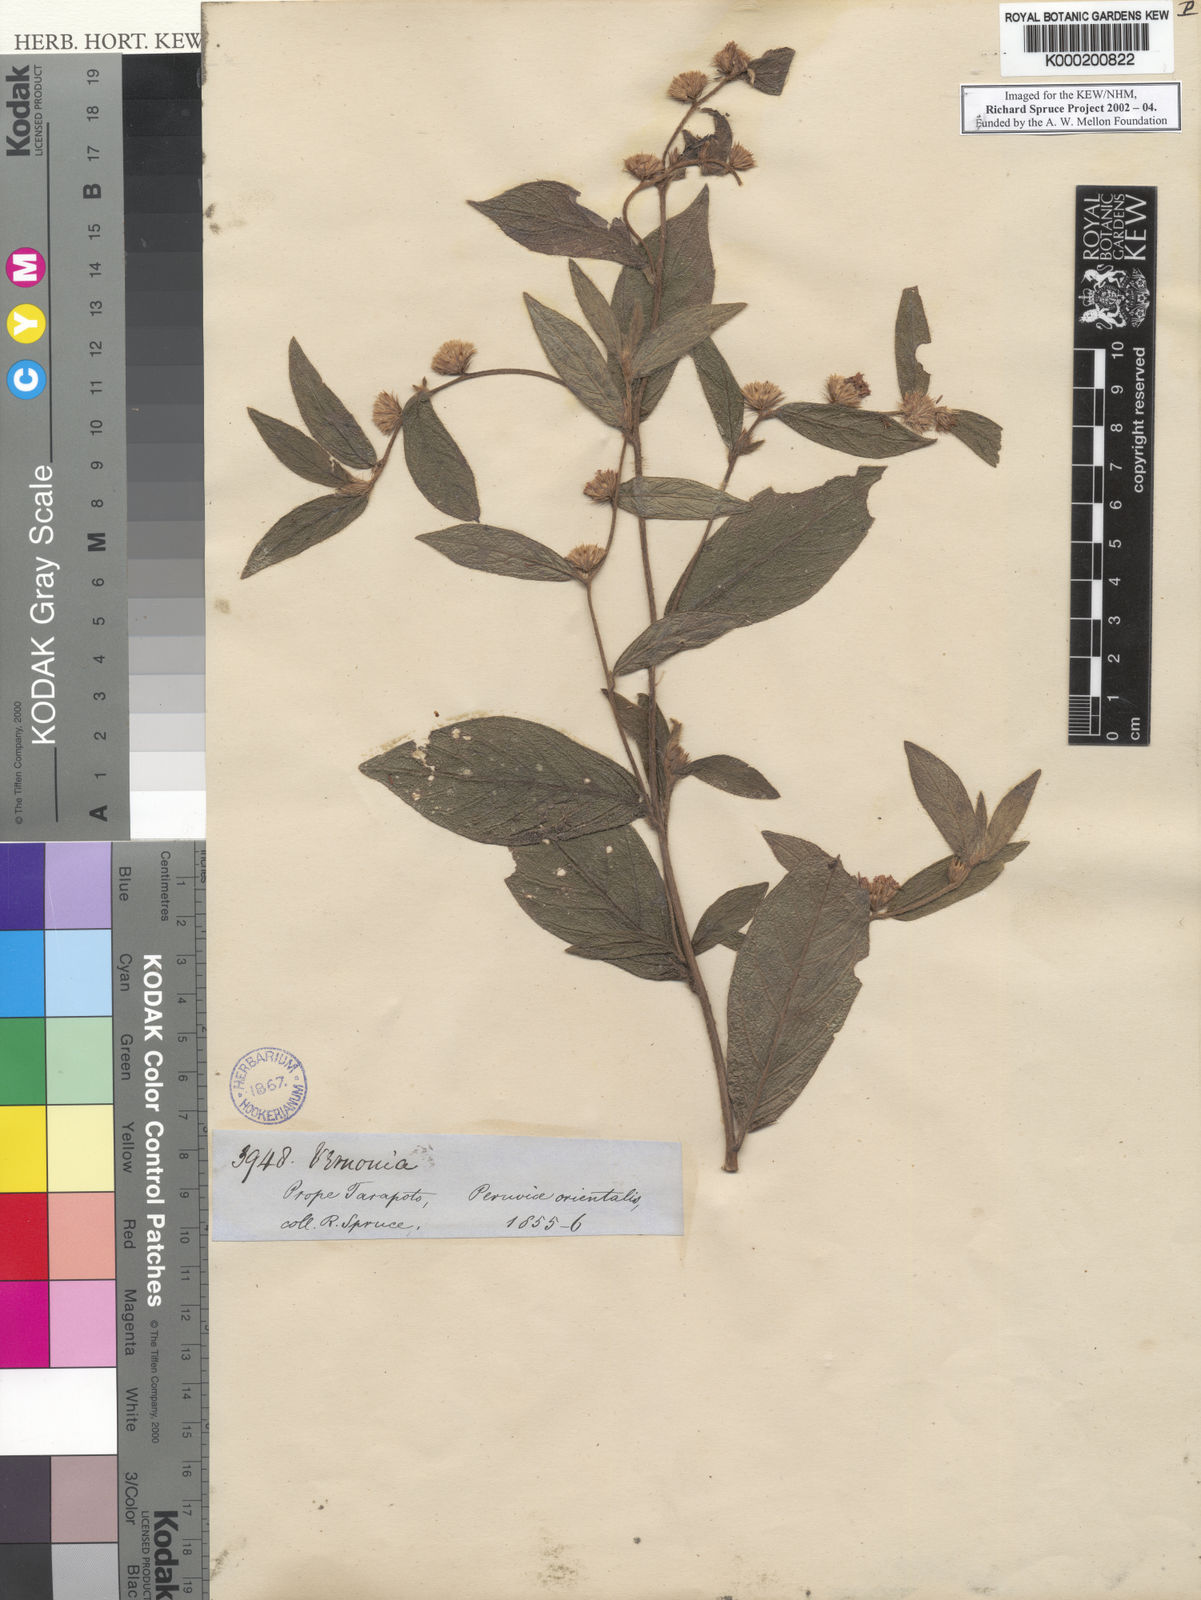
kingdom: Plantae
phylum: Tracheophyta
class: Magnoliopsida
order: Asterales
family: Asteraceae
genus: Vernonia
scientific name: Vernonia
